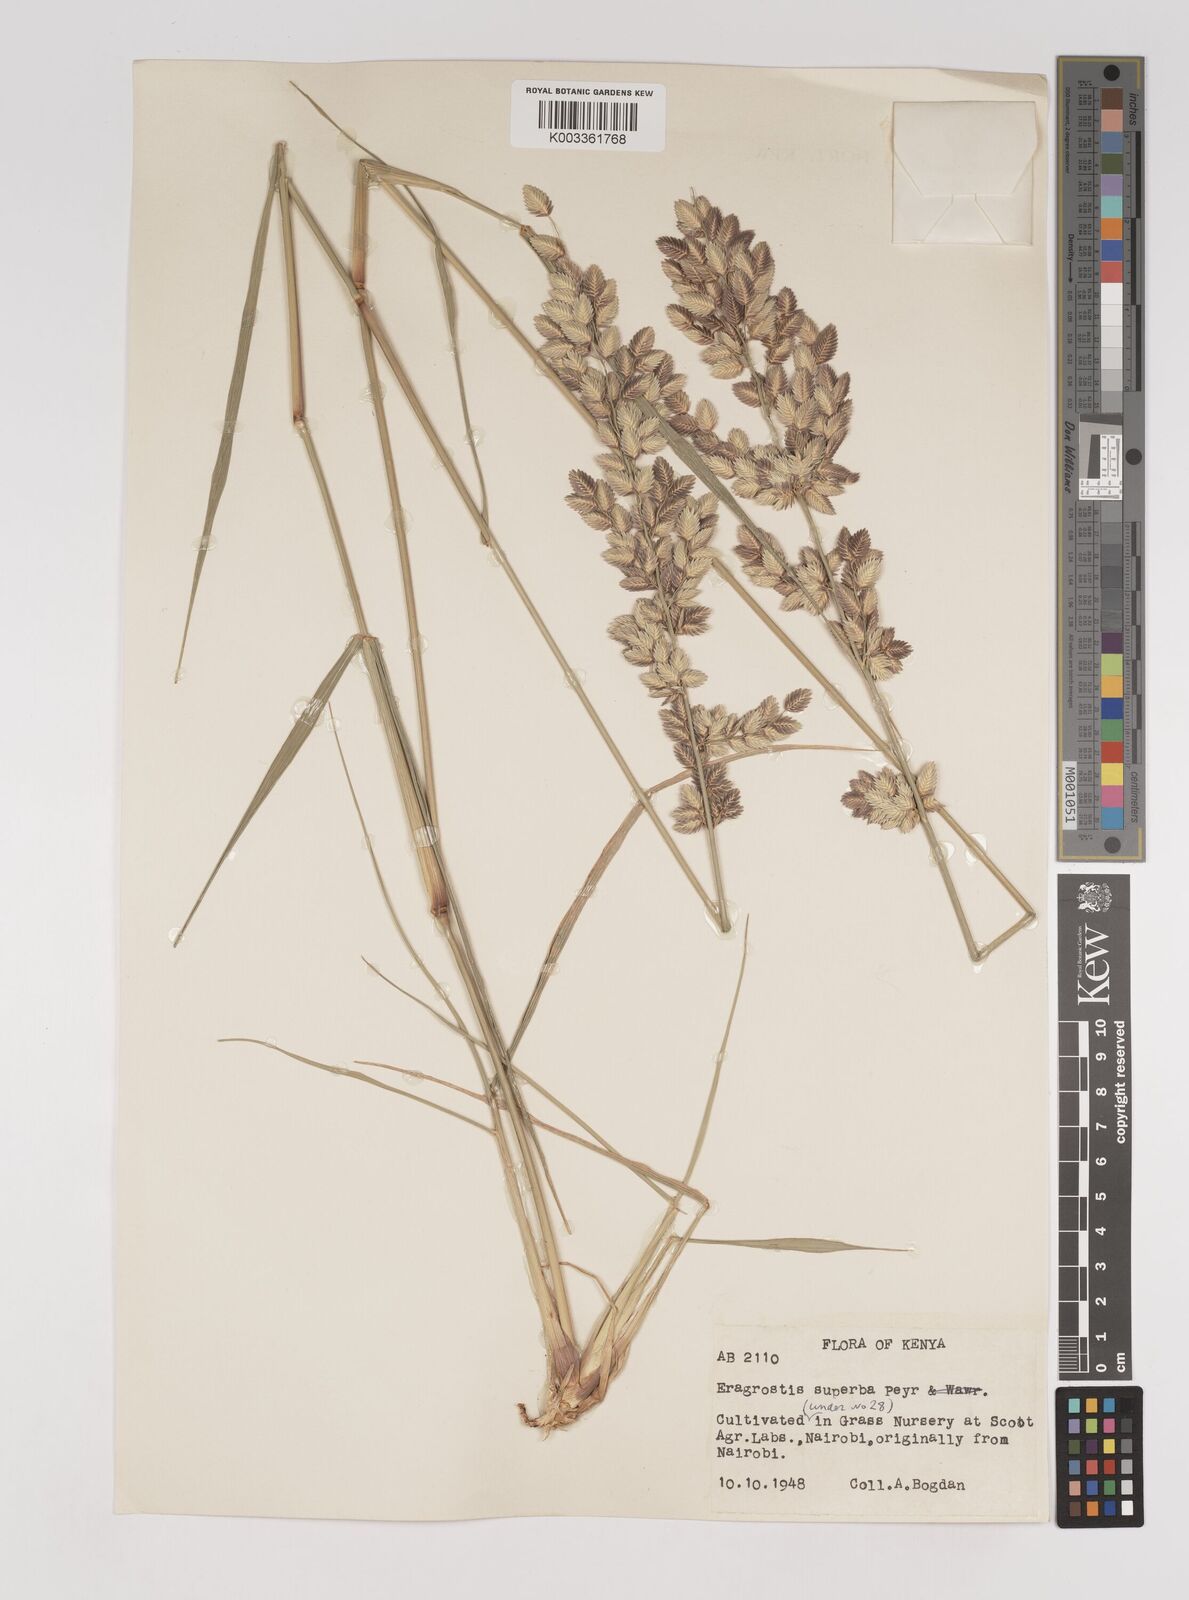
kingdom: Plantae
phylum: Tracheophyta
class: Liliopsida
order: Poales
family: Poaceae
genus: Eragrostis
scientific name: Eragrostis superba
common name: Wilman lovegrass
